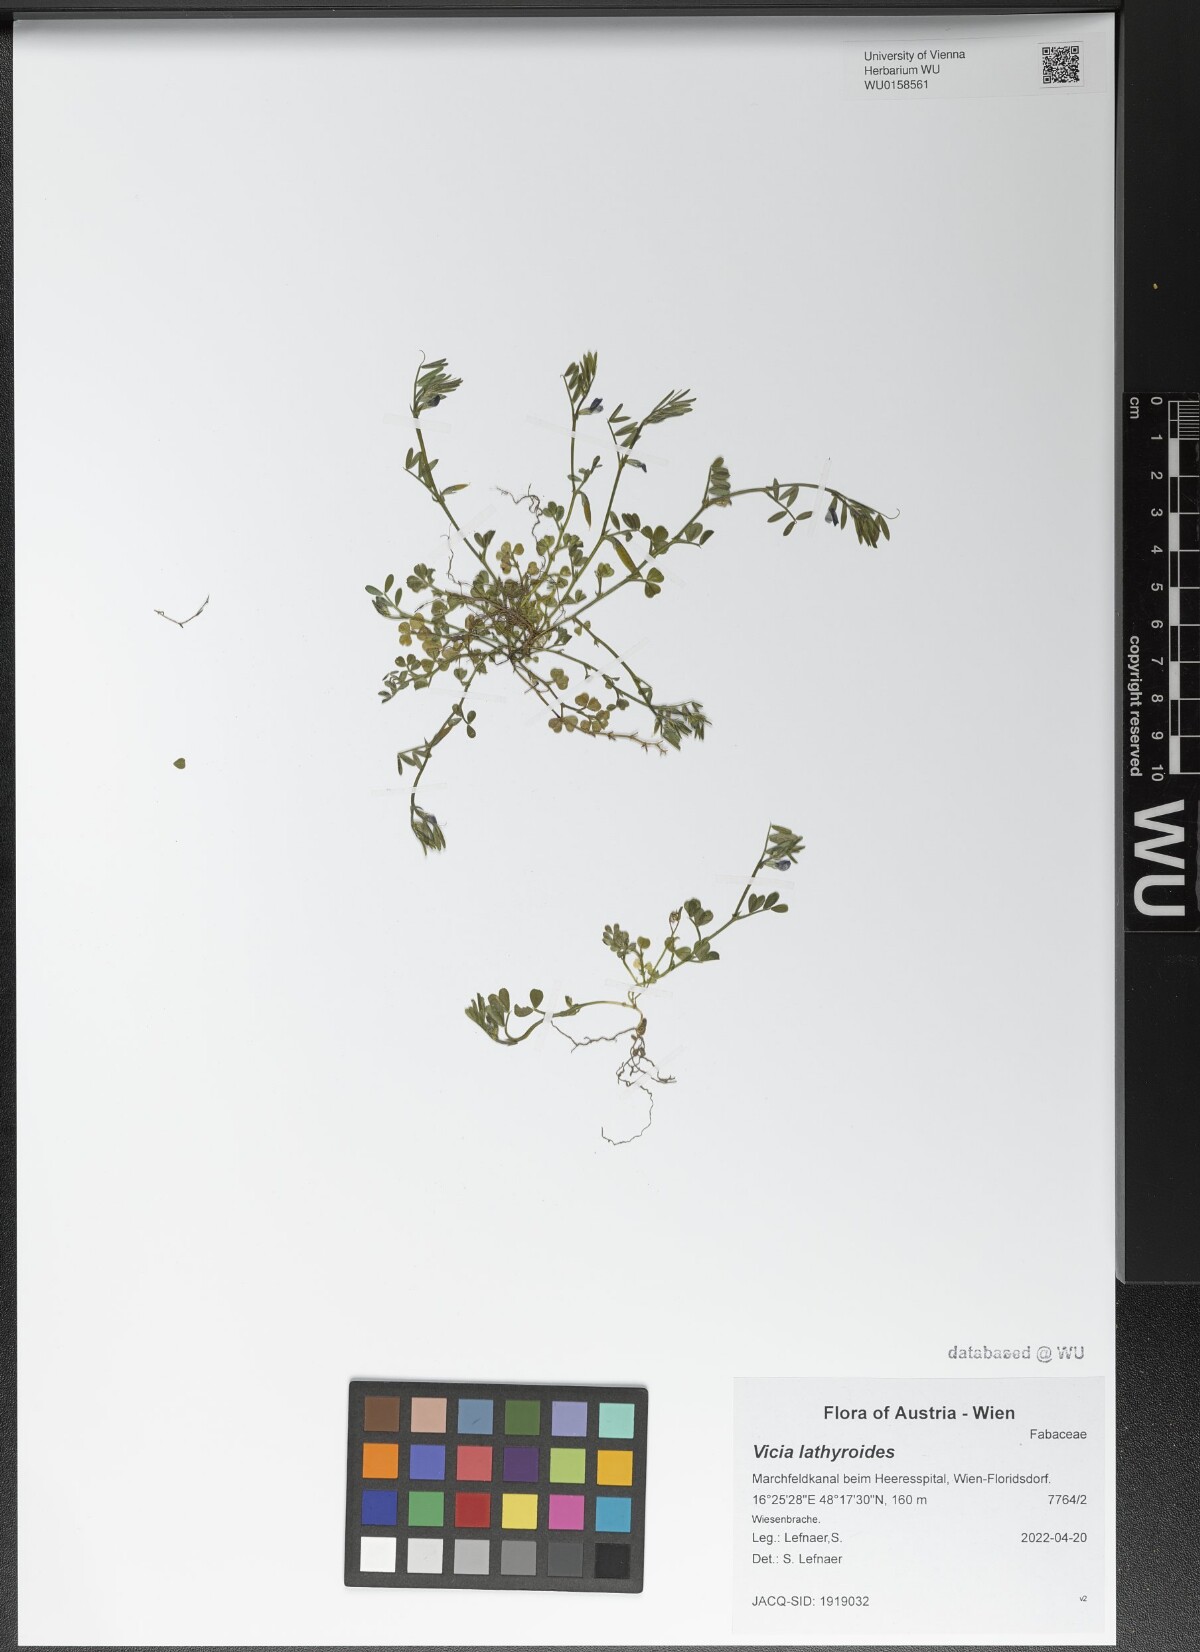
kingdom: Plantae
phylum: Tracheophyta
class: Magnoliopsida
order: Fabales
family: Fabaceae
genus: Vicia
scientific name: Vicia lathyroides
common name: Spring vetch
